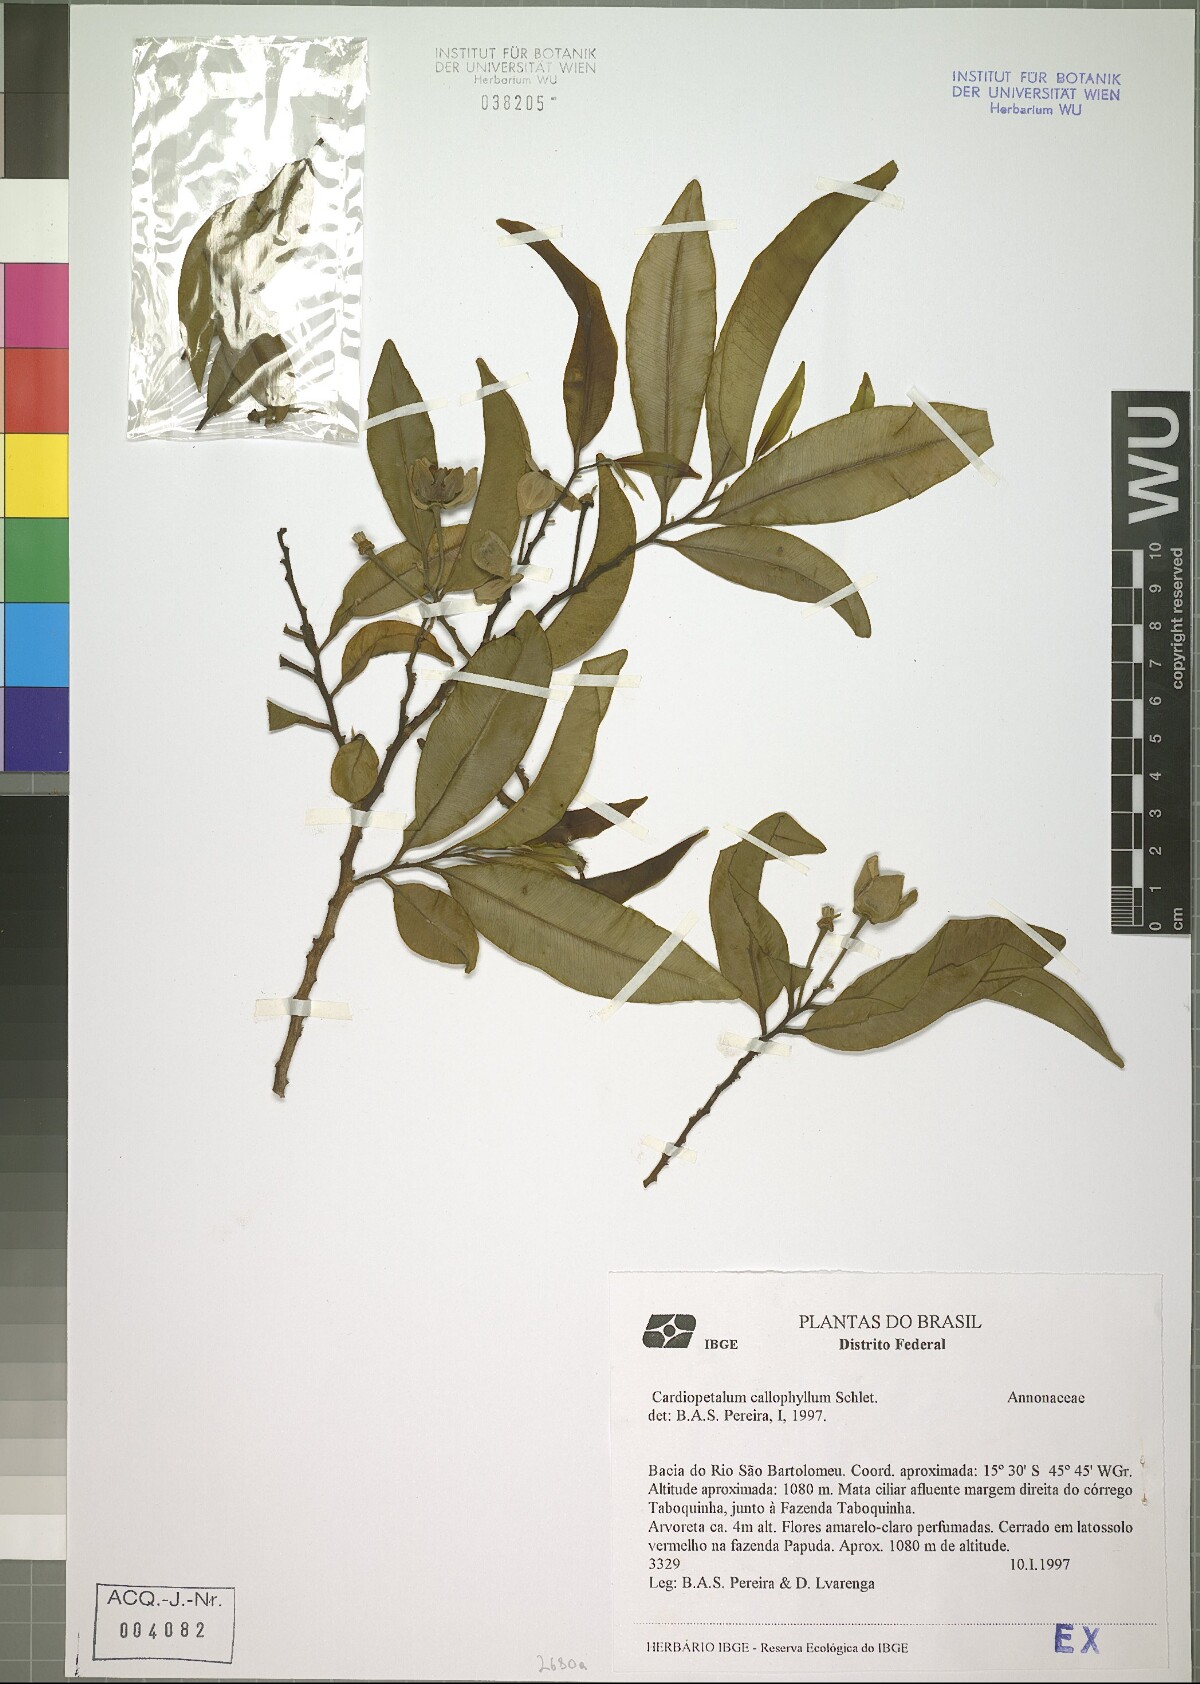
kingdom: Plantae
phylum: Tracheophyta
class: Magnoliopsida
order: Magnoliales
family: Annonaceae
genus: Cardiopetalum
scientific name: Cardiopetalum calophyllum
